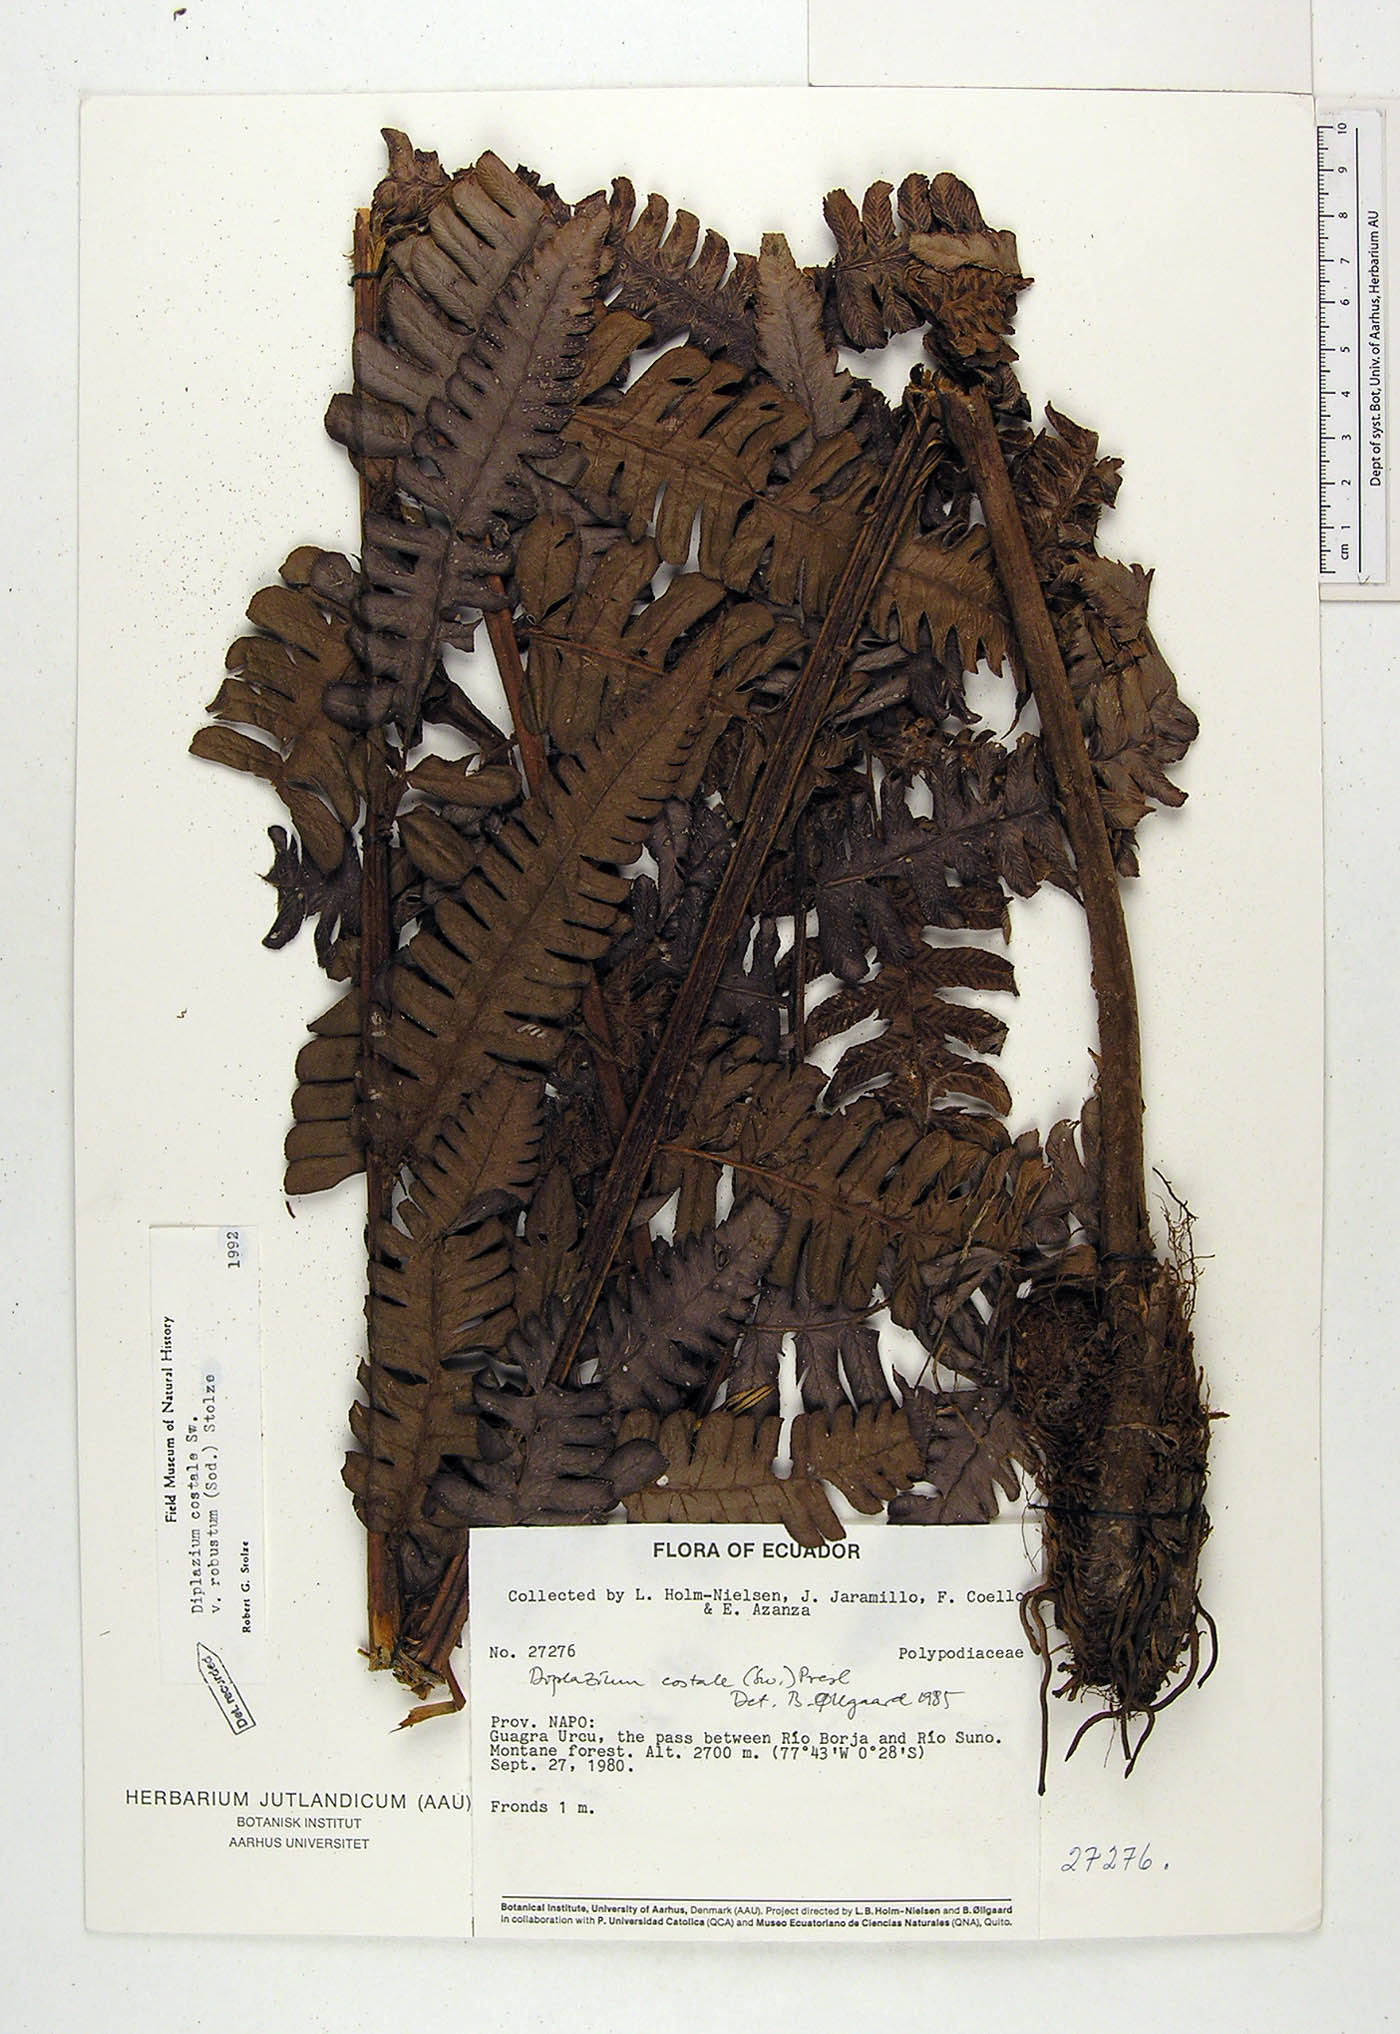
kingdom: Plantae
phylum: Tracheophyta
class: Polypodiopsida
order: Polypodiales
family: Athyriaceae
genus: Diplazium
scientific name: Diplazium costale
